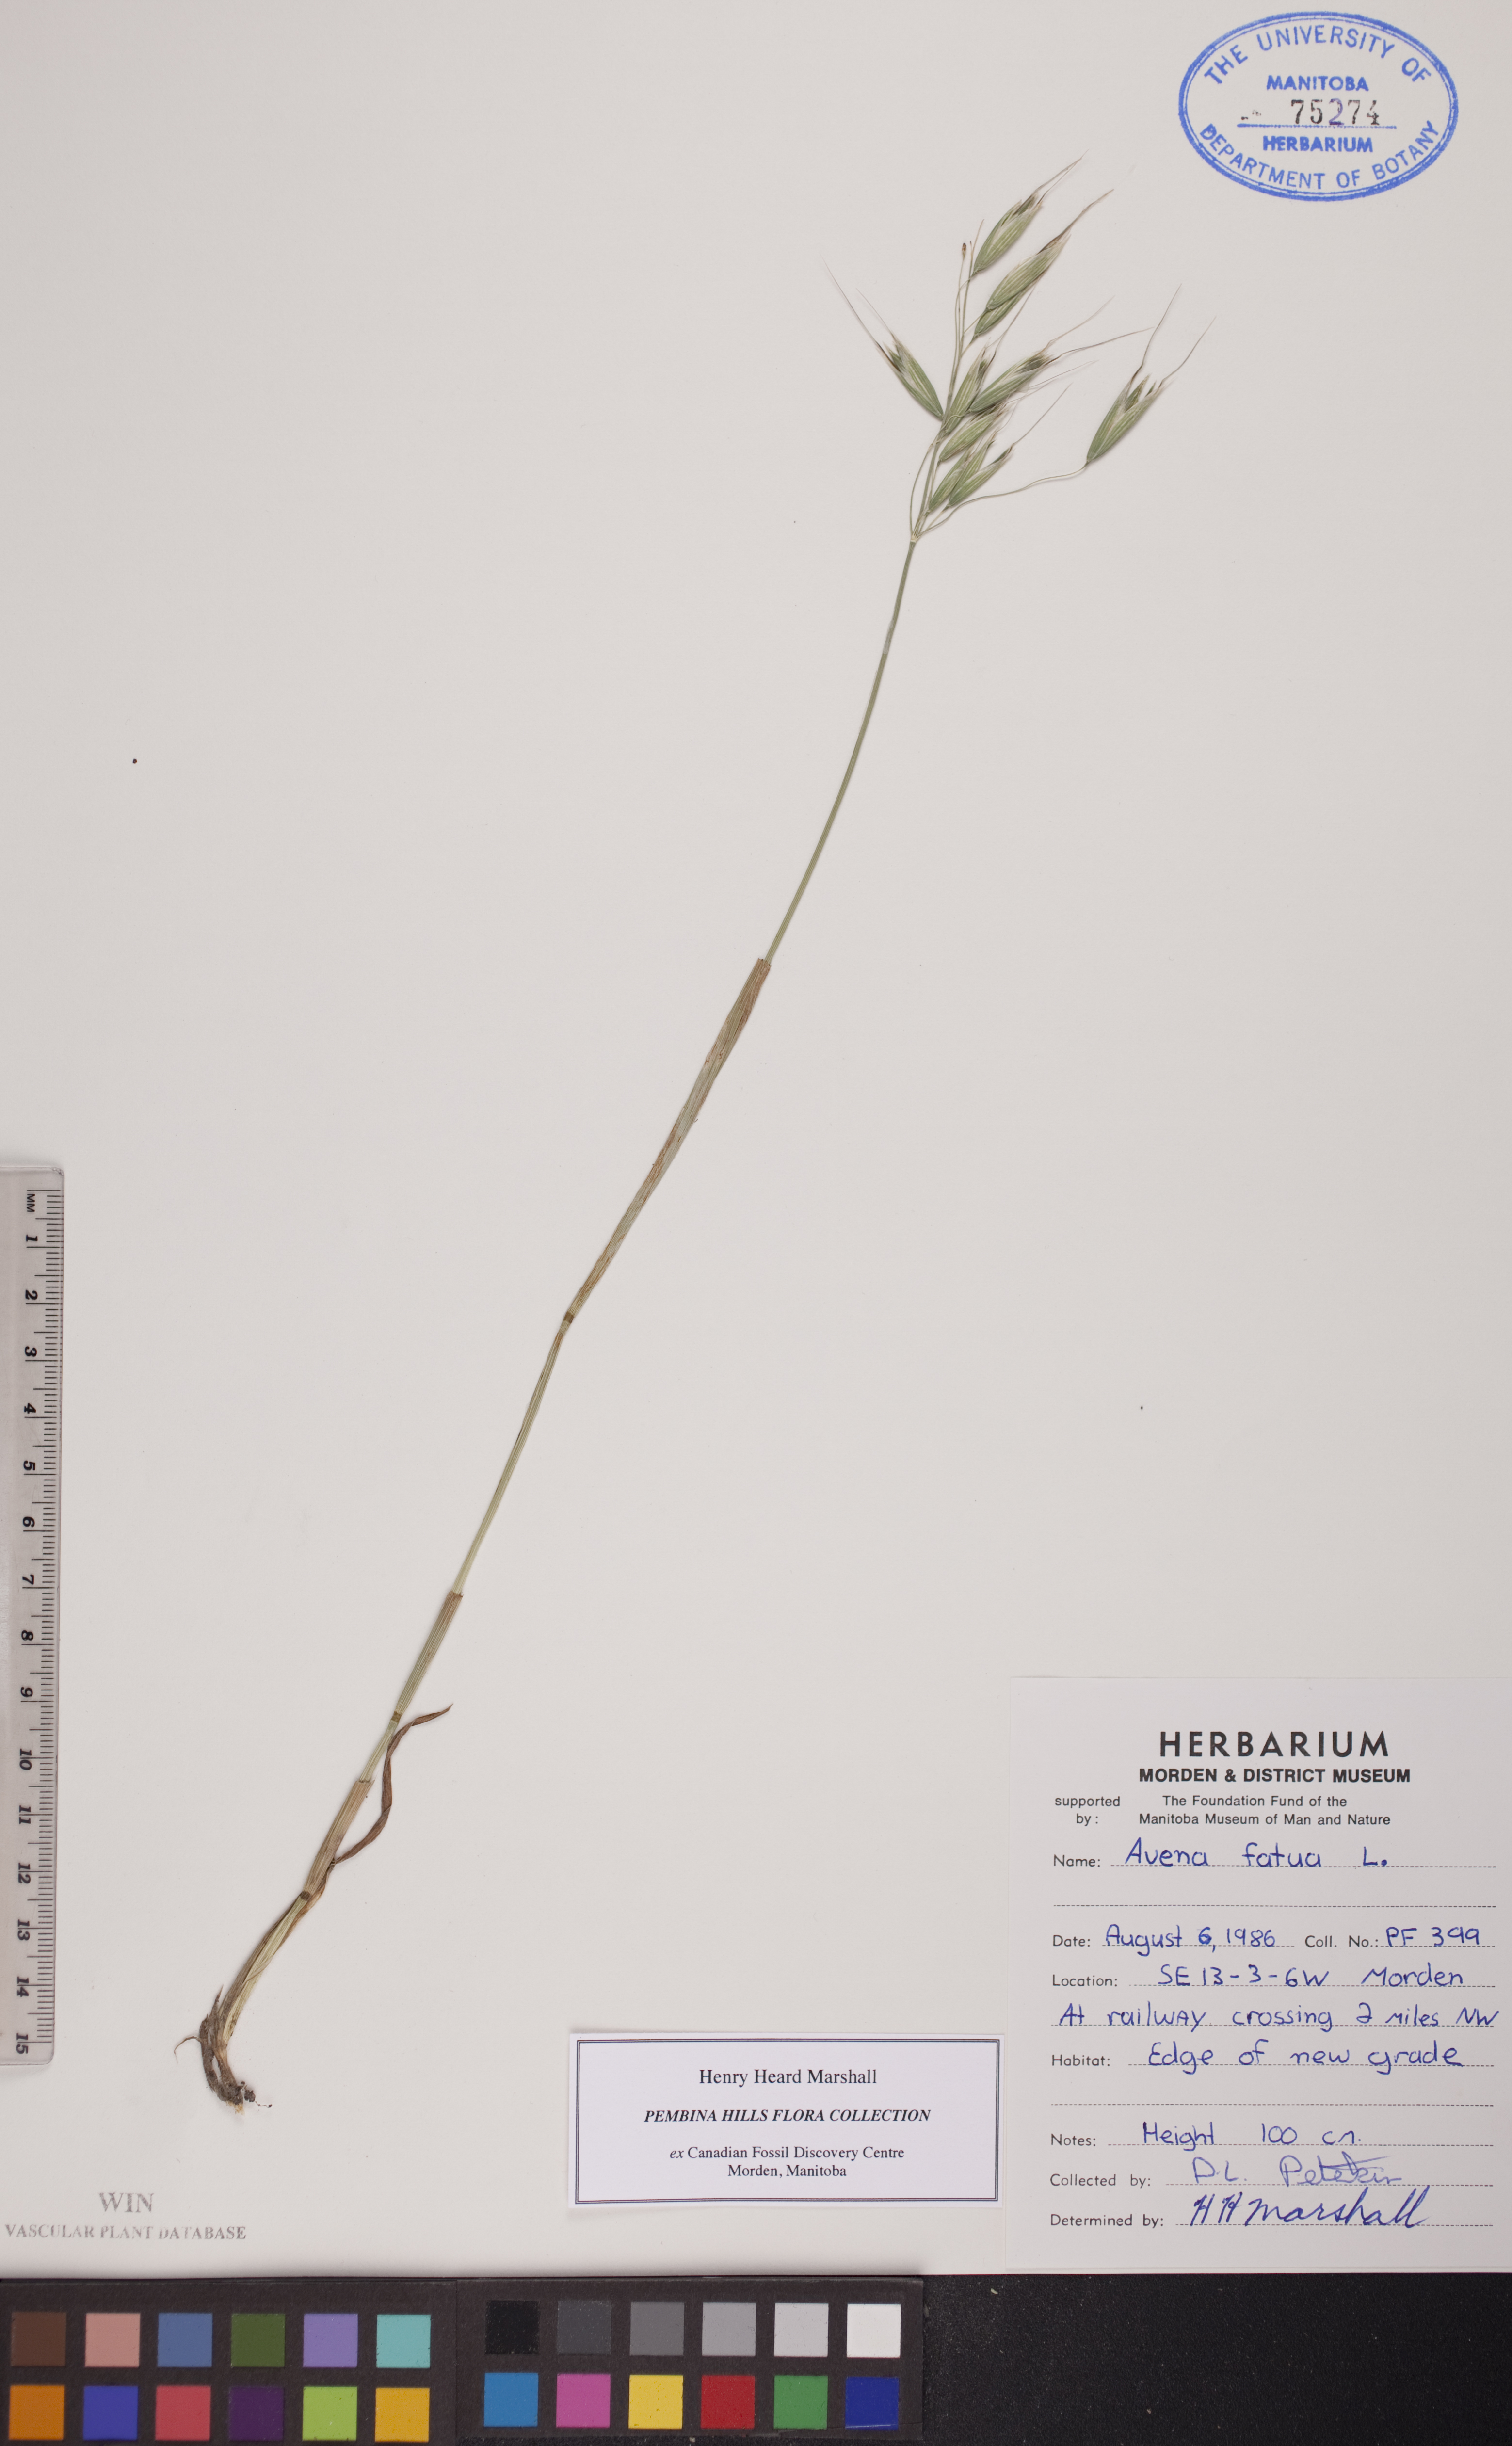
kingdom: Plantae
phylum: Tracheophyta
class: Liliopsida
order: Poales
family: Poaceae
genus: Avena
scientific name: Avena fatua
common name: Wild oat
